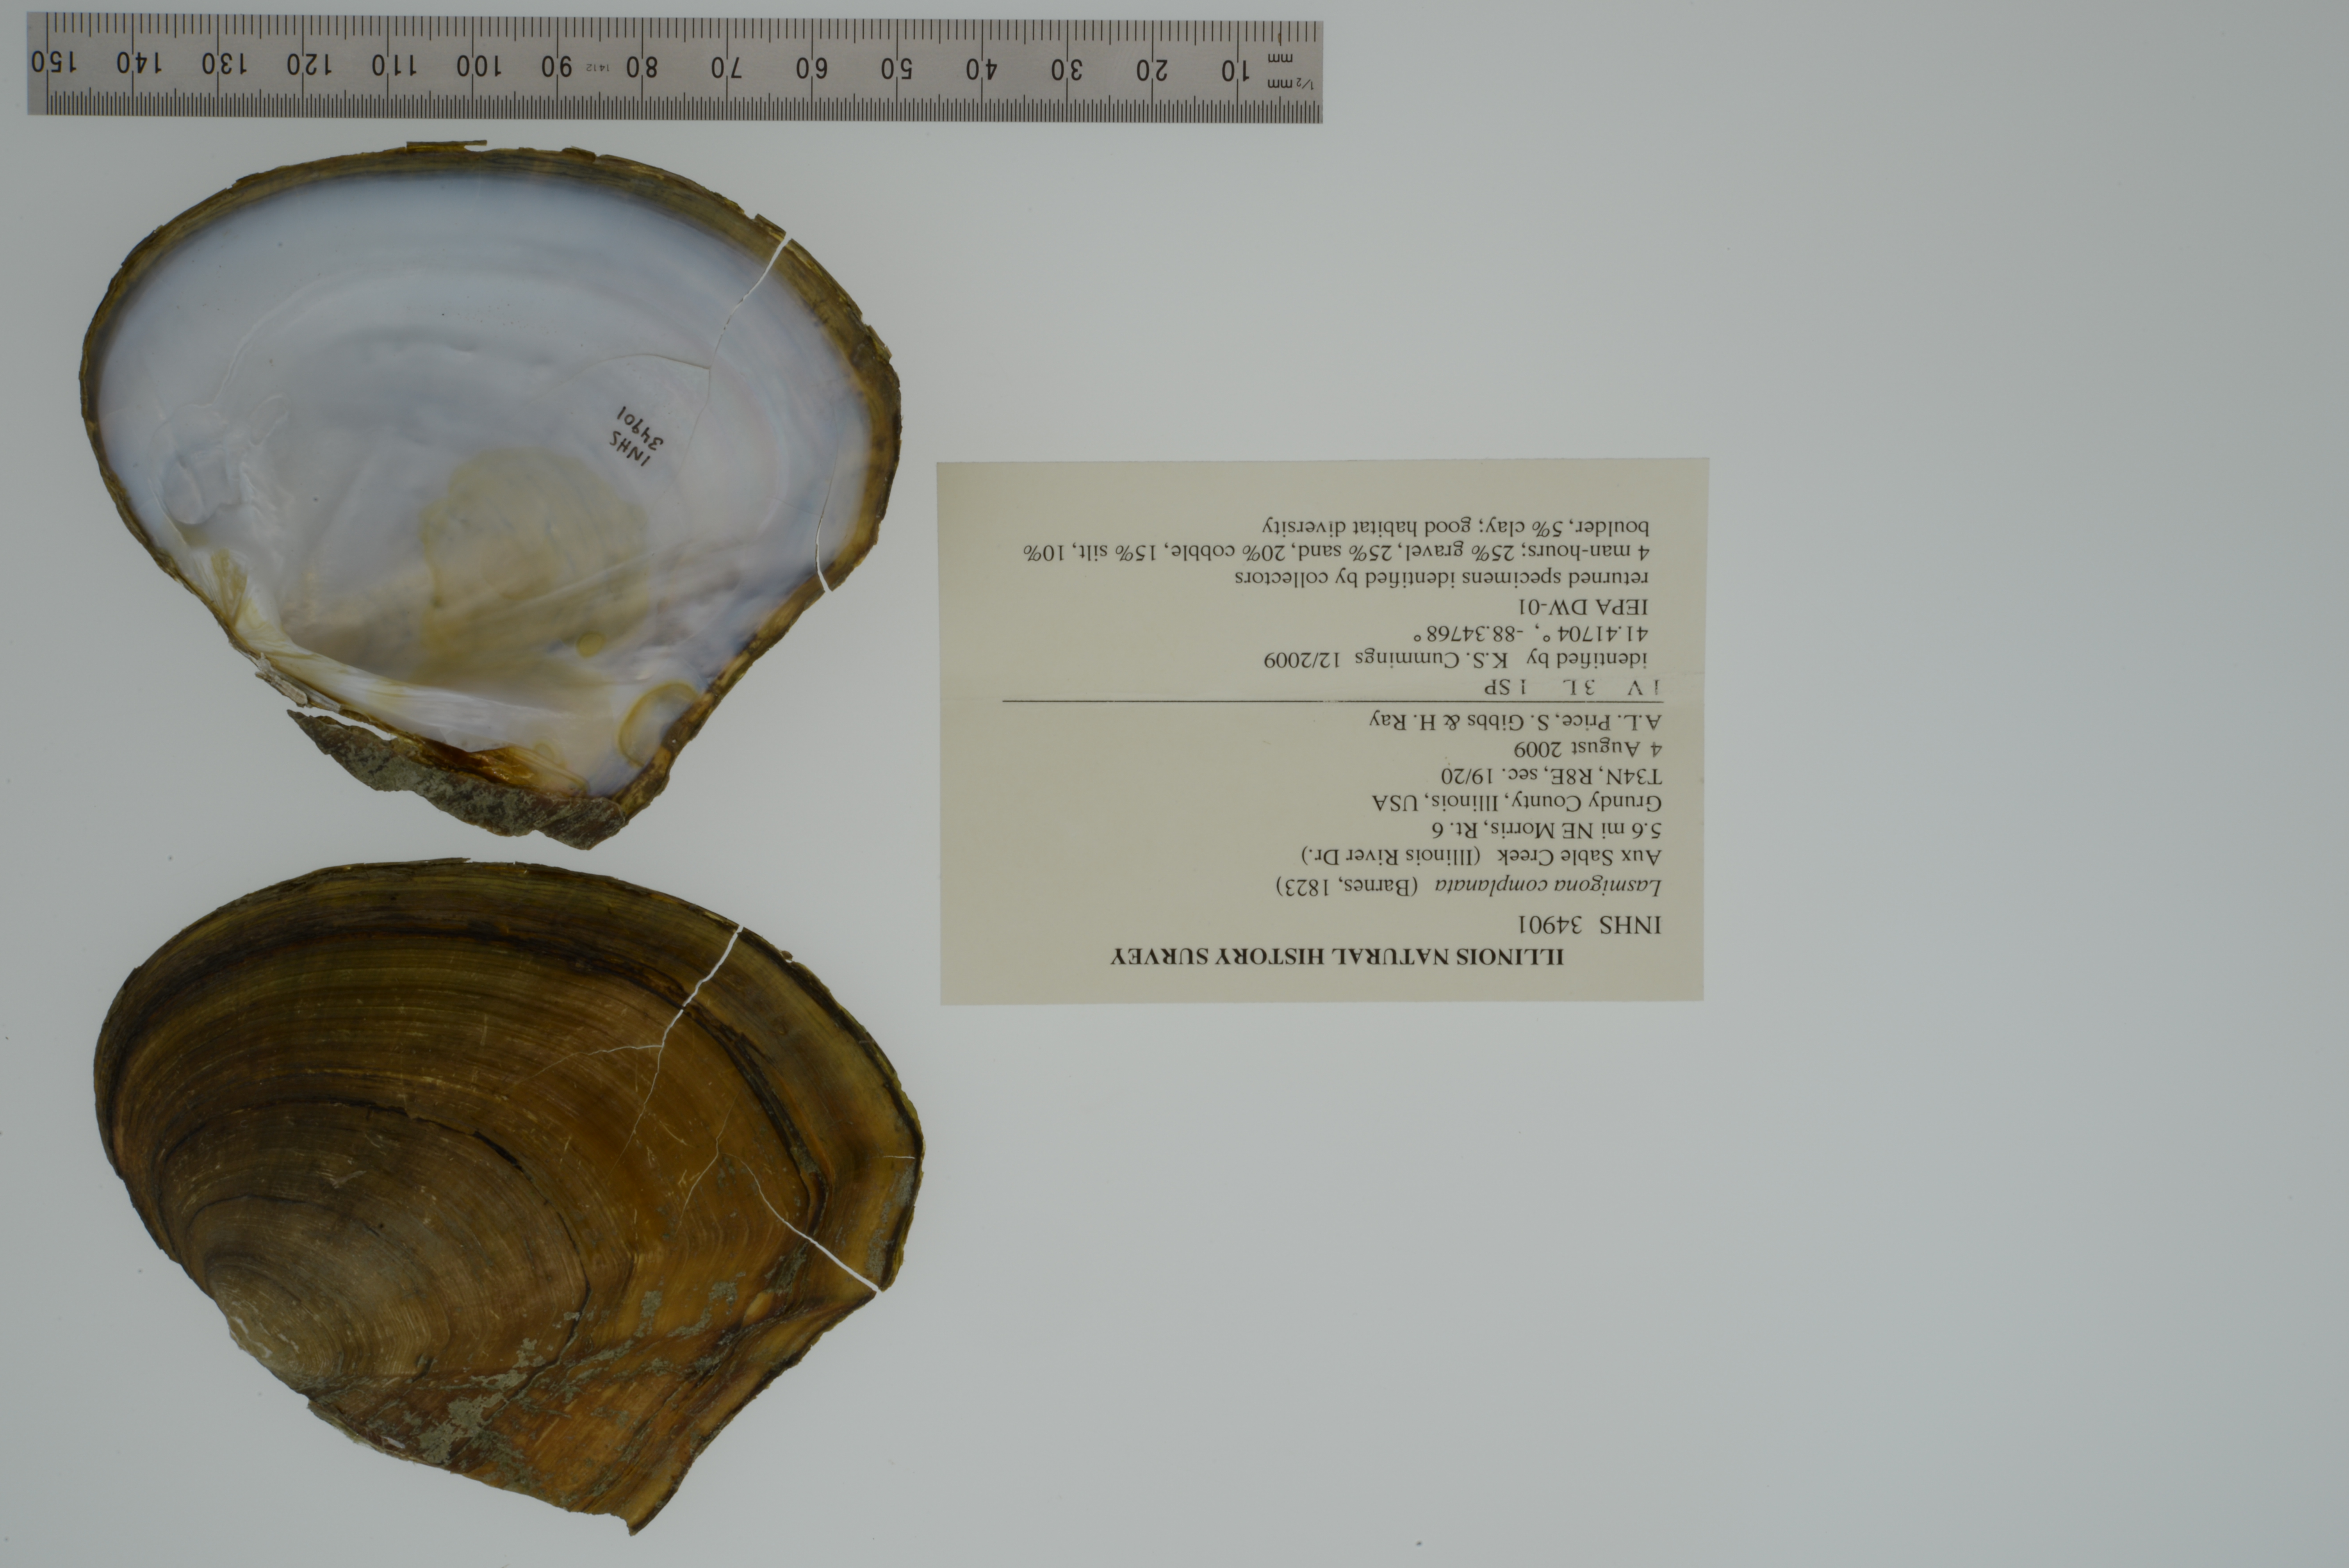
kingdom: Animalia
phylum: Mollusca
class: Bivalvia
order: Unionida
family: Unionidae
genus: Lasmigona
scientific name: Lasmigona complanata
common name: White heelsplitter
